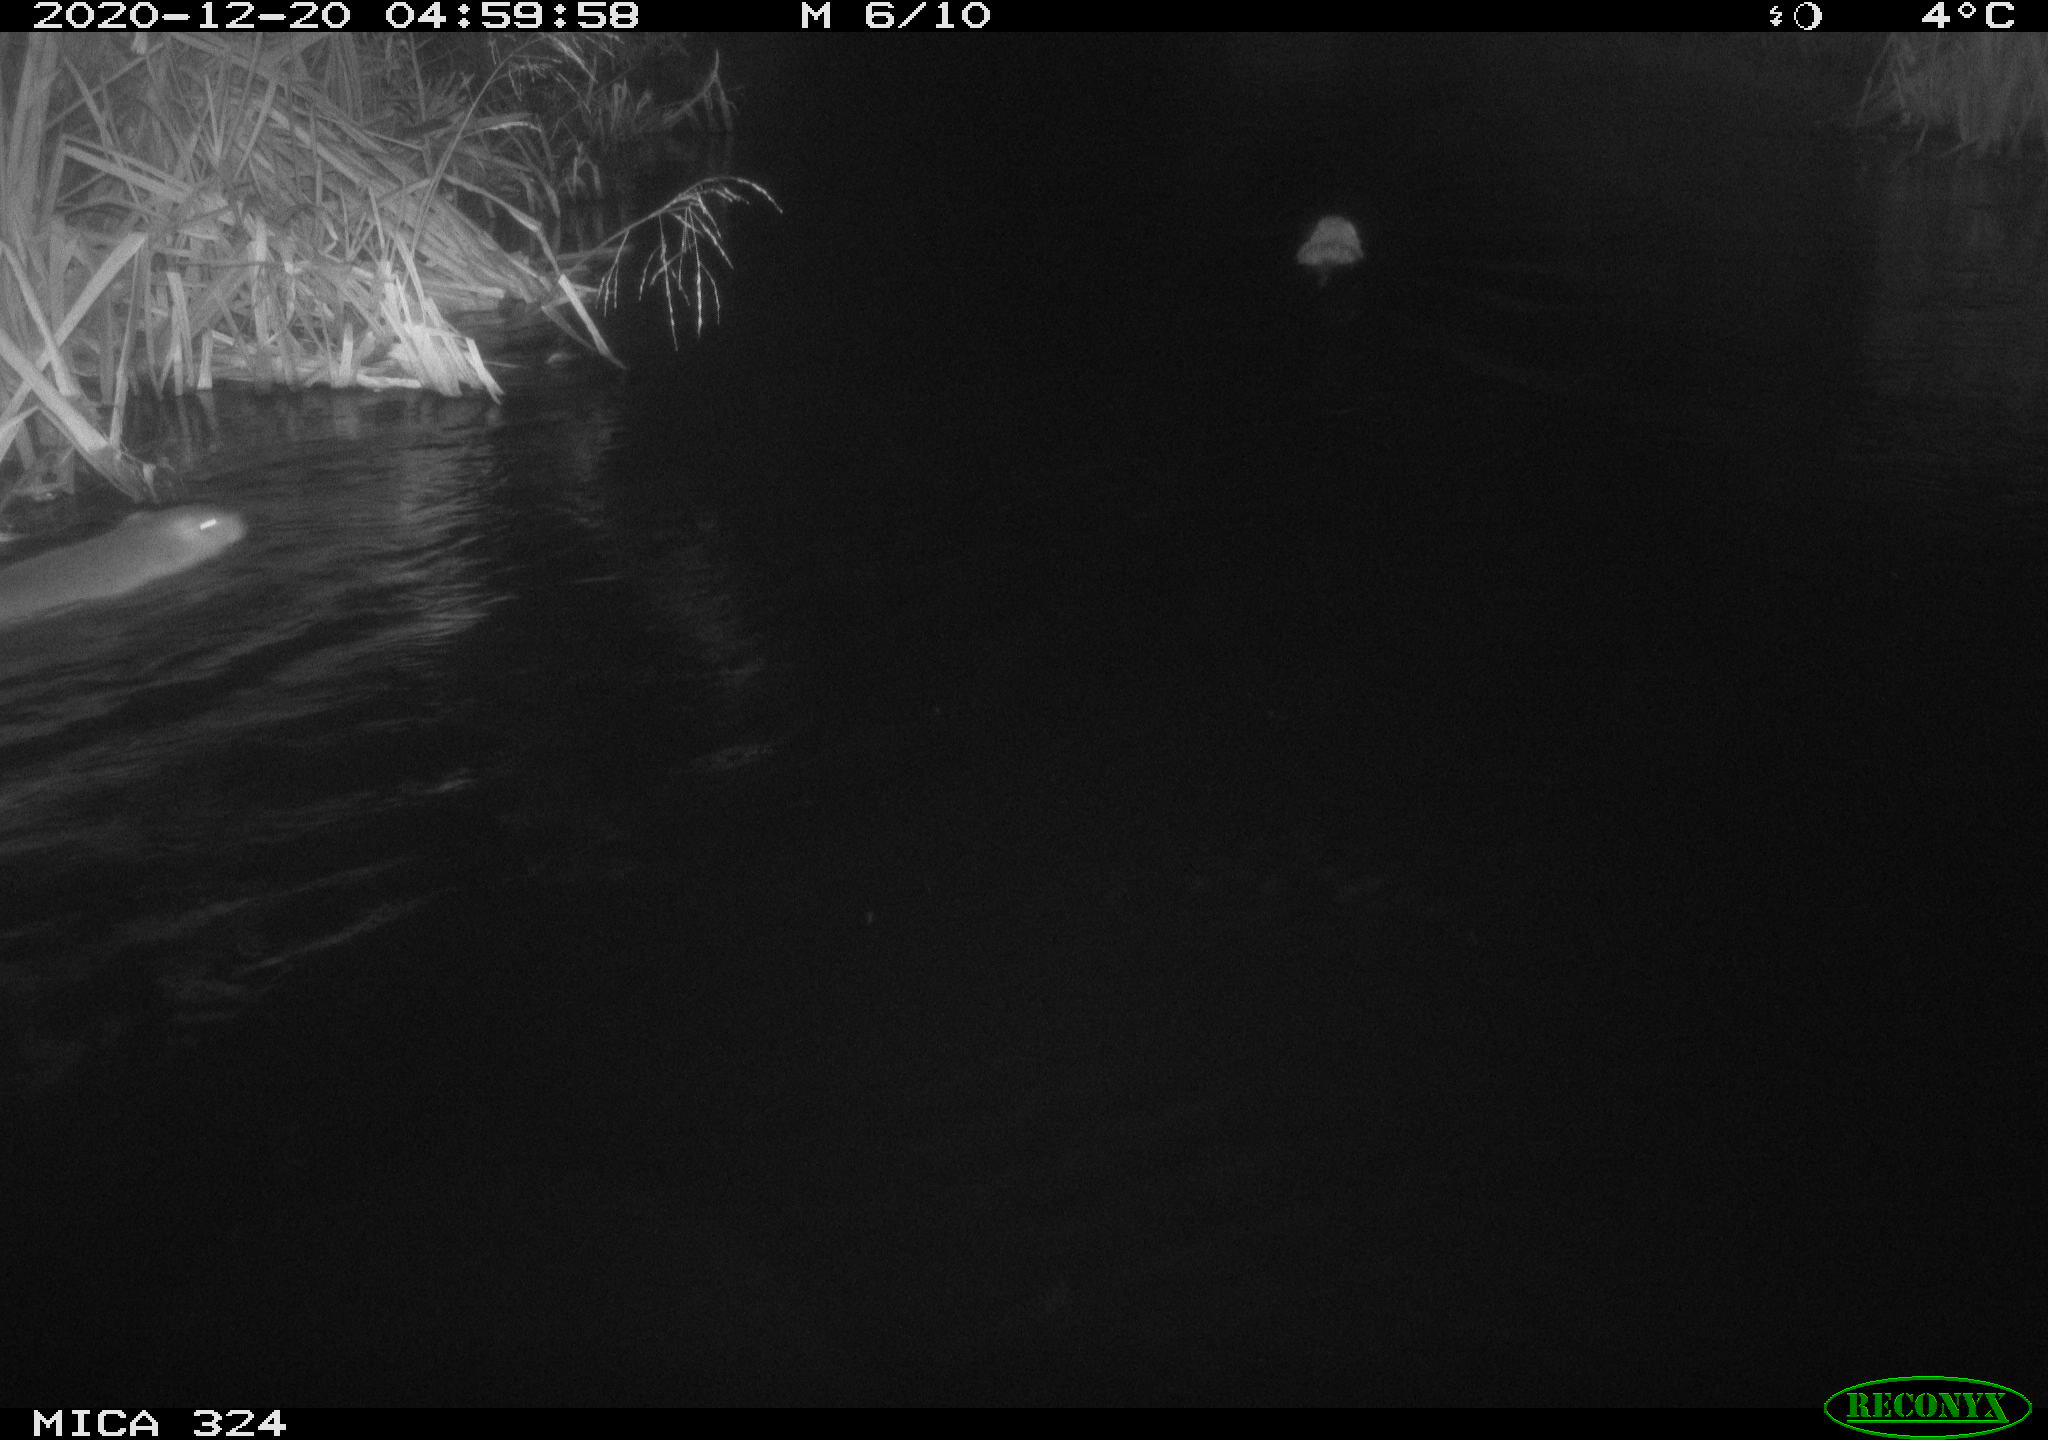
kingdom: Animalia
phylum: Chordata
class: Mammalia
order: Rodentia
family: Myocastoridae
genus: Myocastor
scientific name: Myocastor coypus
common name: Coypu
